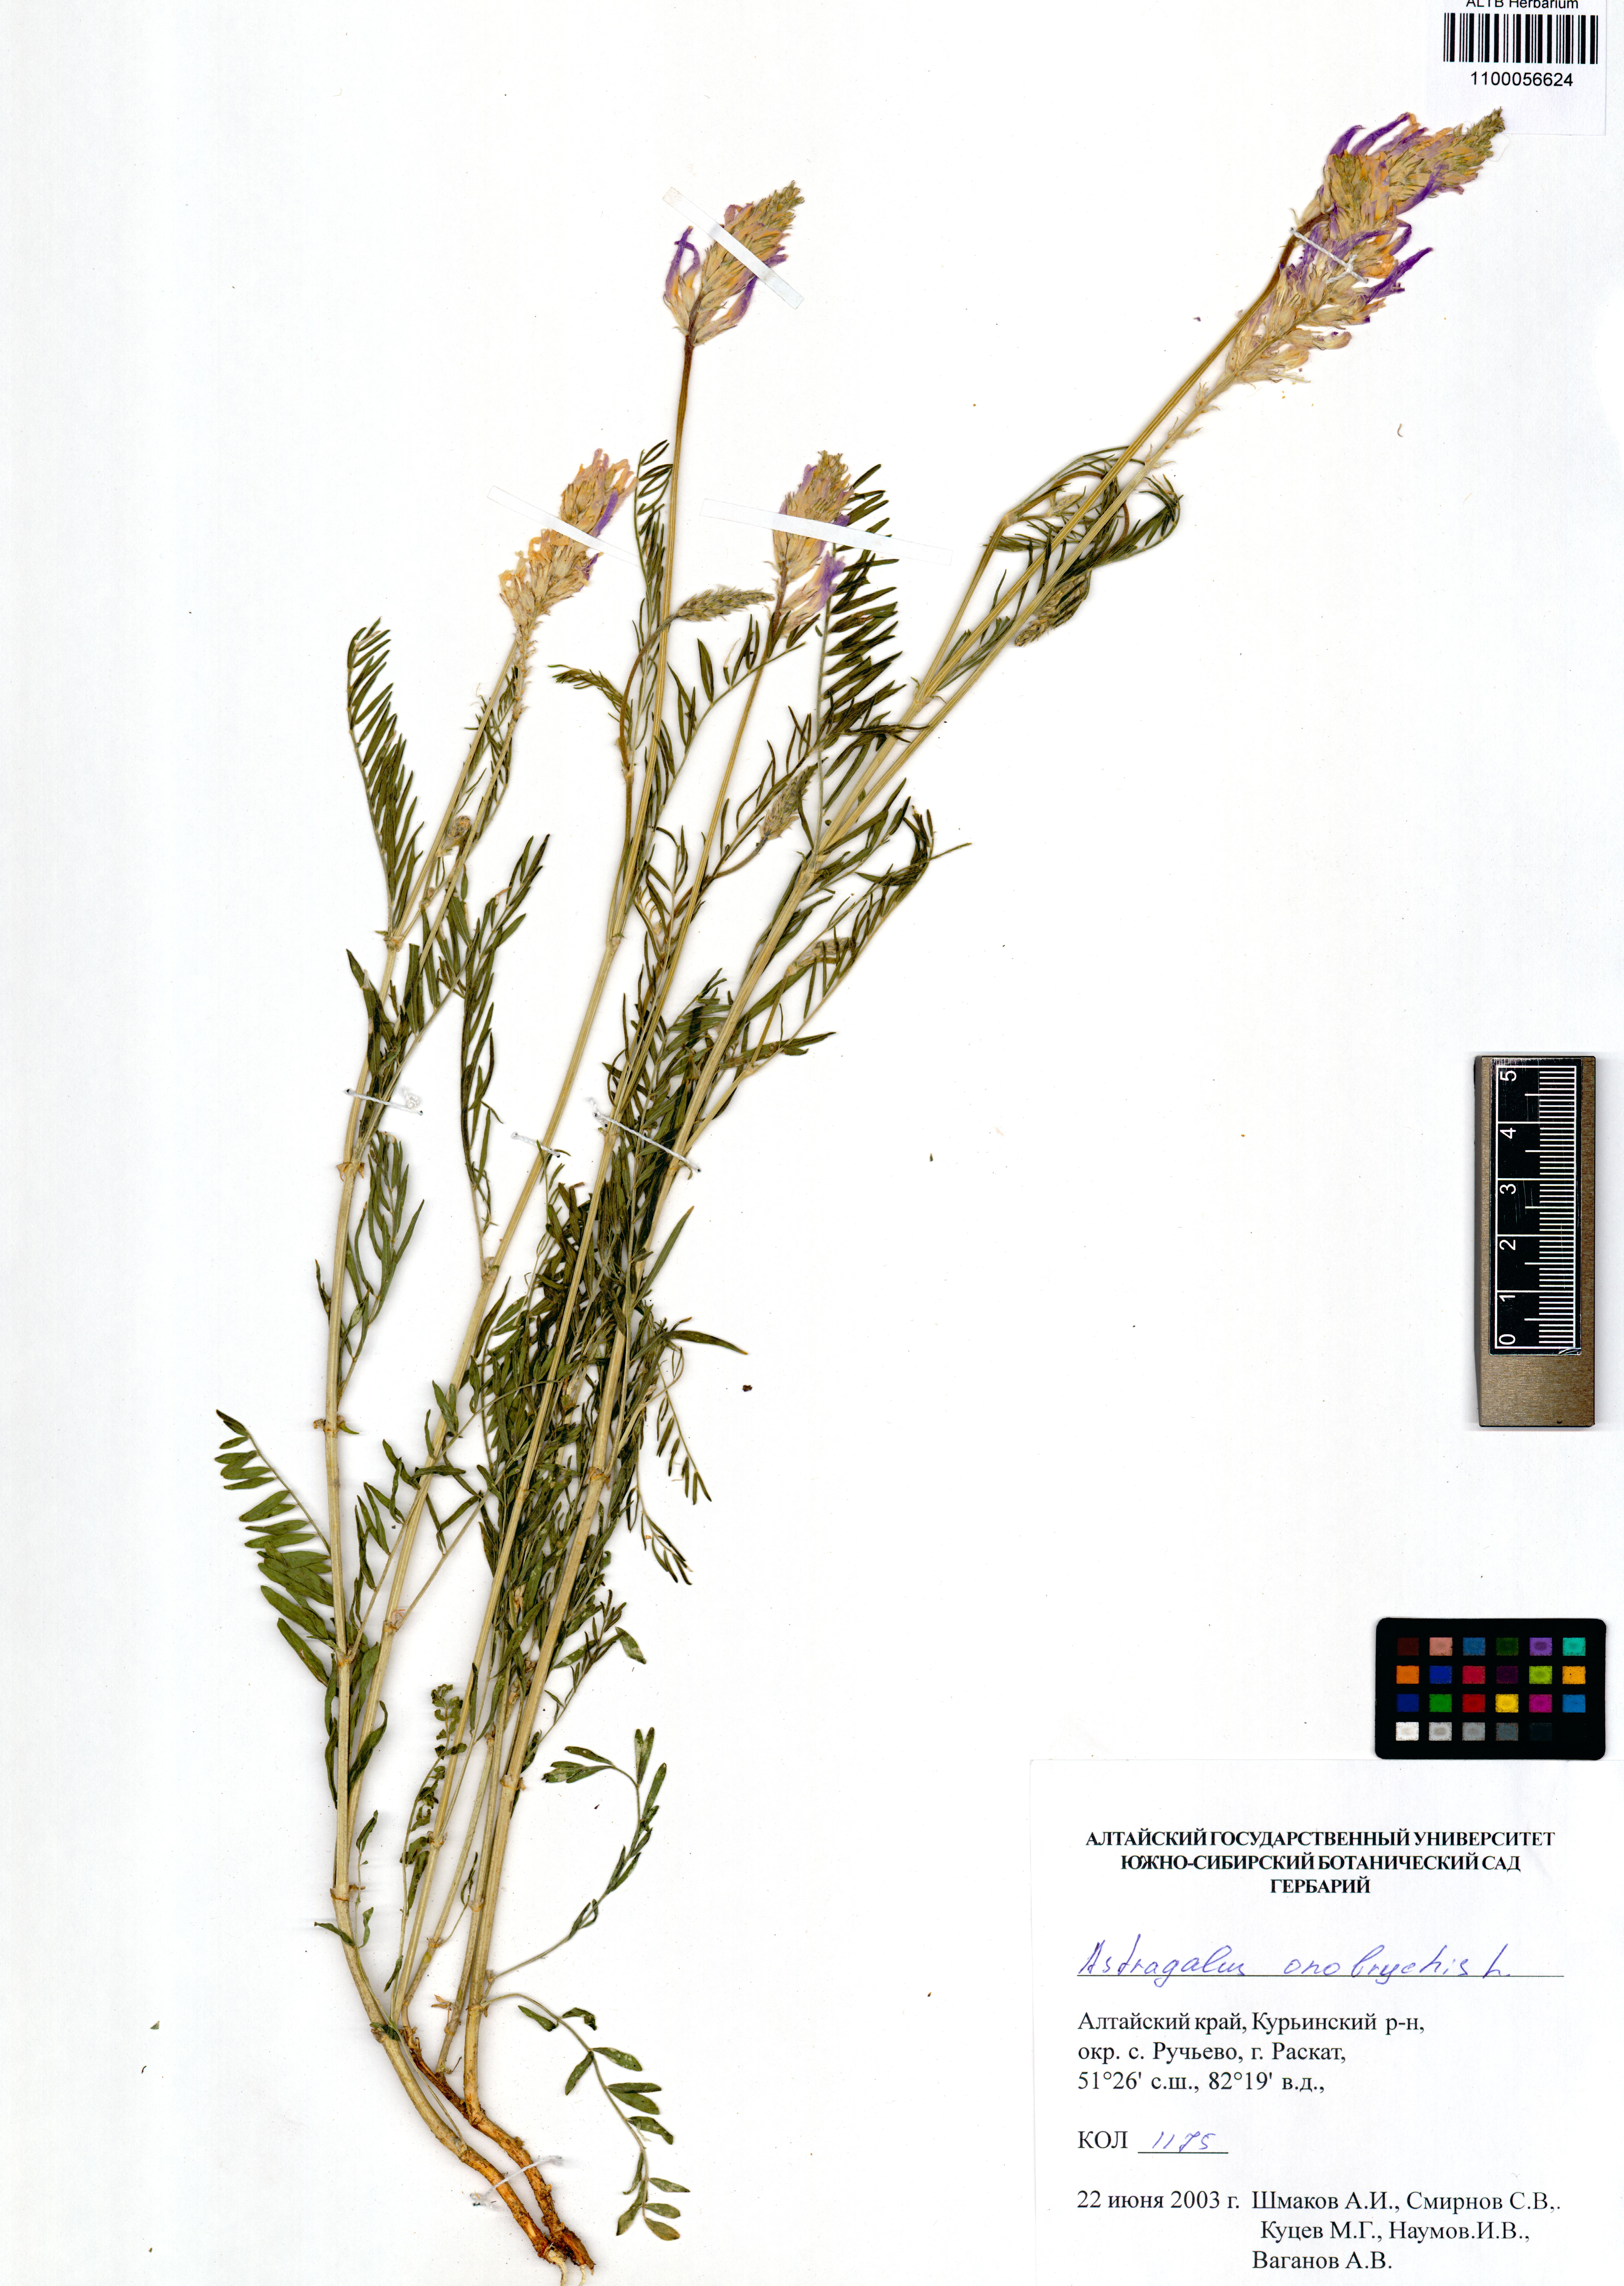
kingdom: Plantae
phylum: Tracheophyta
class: Magnoliopsida
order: Fabales
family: Fabaceae
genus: Astragalus
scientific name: Astragalus onobrychis
